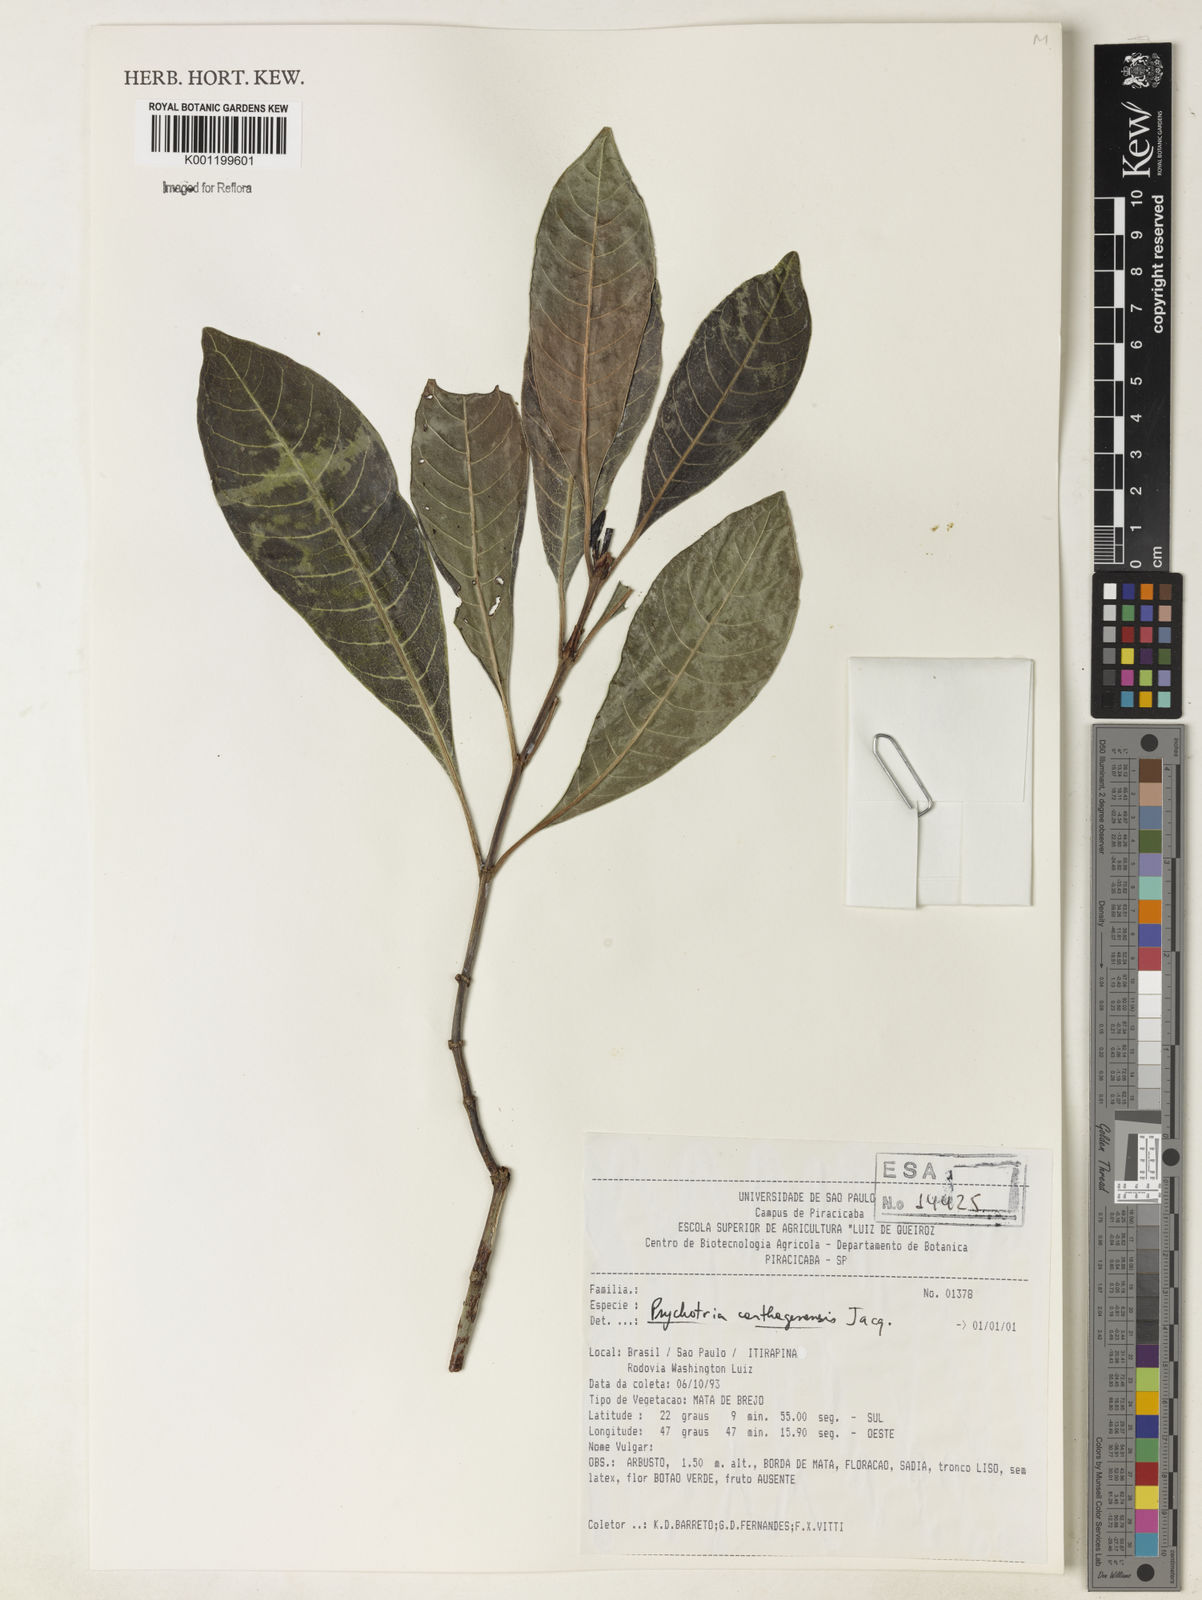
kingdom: Plantae
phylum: Tracheophyta
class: Magnoliopsida
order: Gentianales
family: Rubiaceae
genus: Psychotria
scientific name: Psychotria carthagenensis
